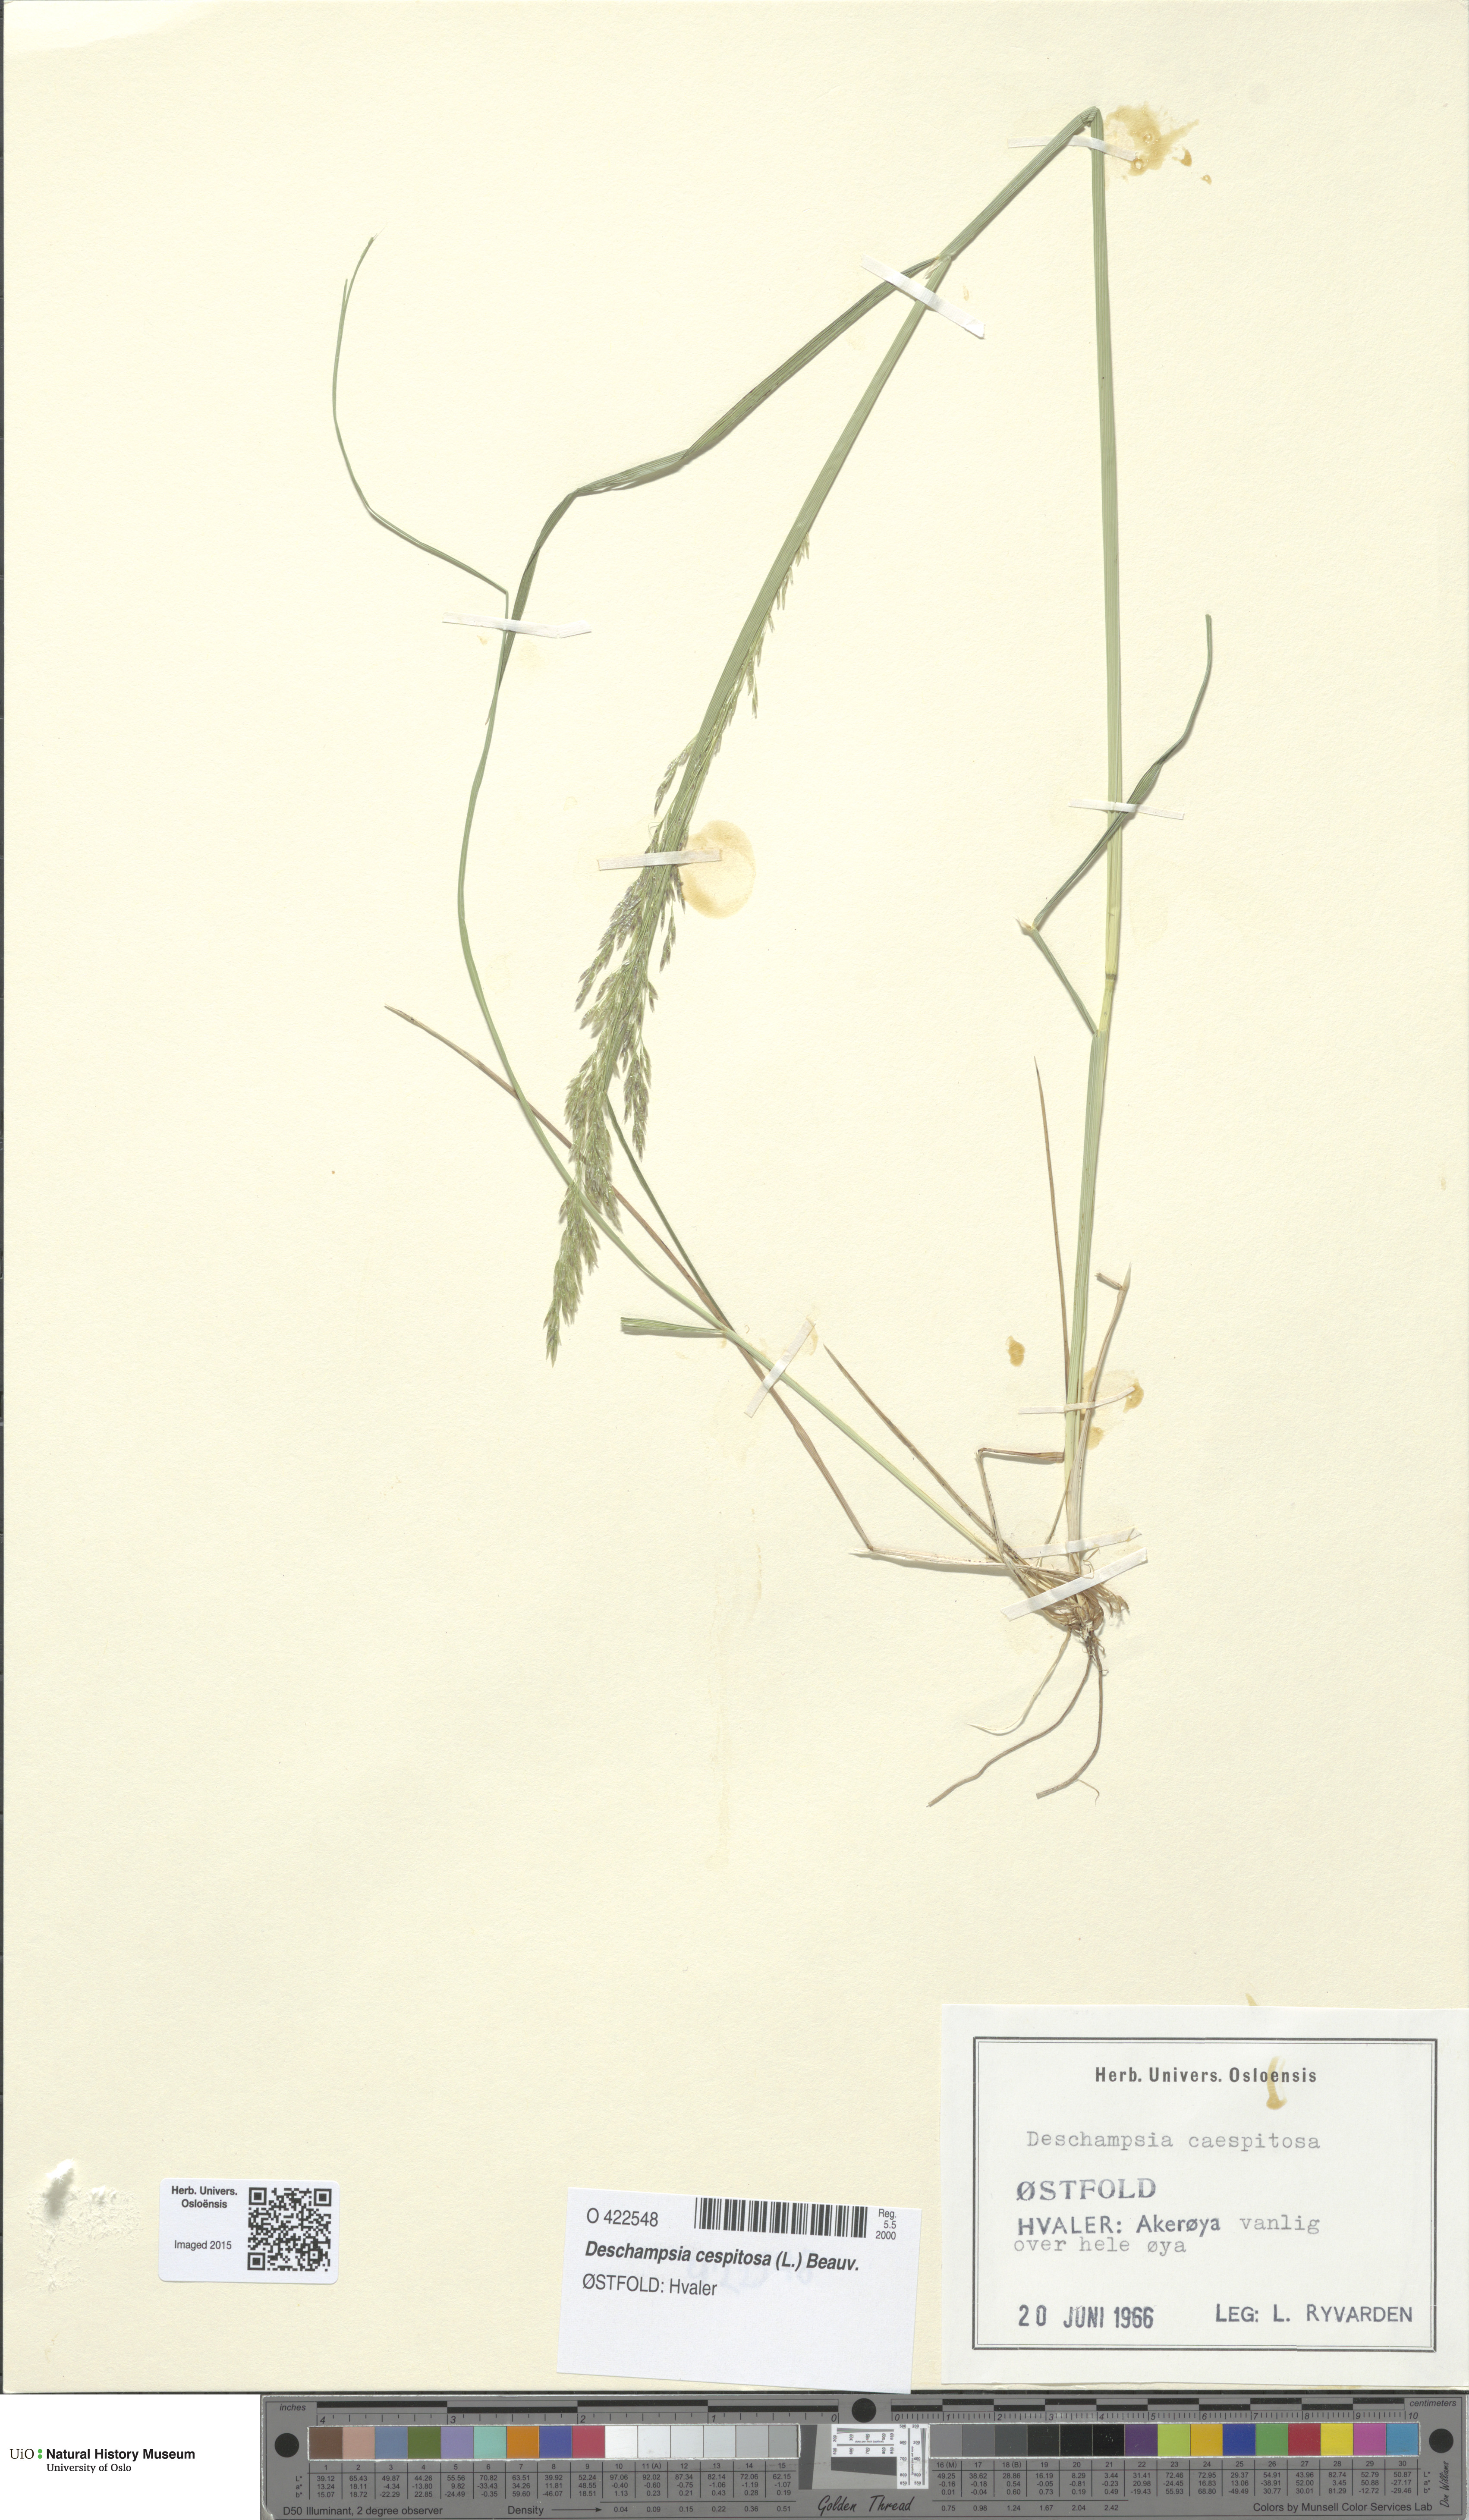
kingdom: Plantae
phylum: Tracheophyta
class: Liliopsida
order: Poales
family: Poaceae
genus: Deschampsia
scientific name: Deschampsia cespitosa
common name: Tufted hair-grass
